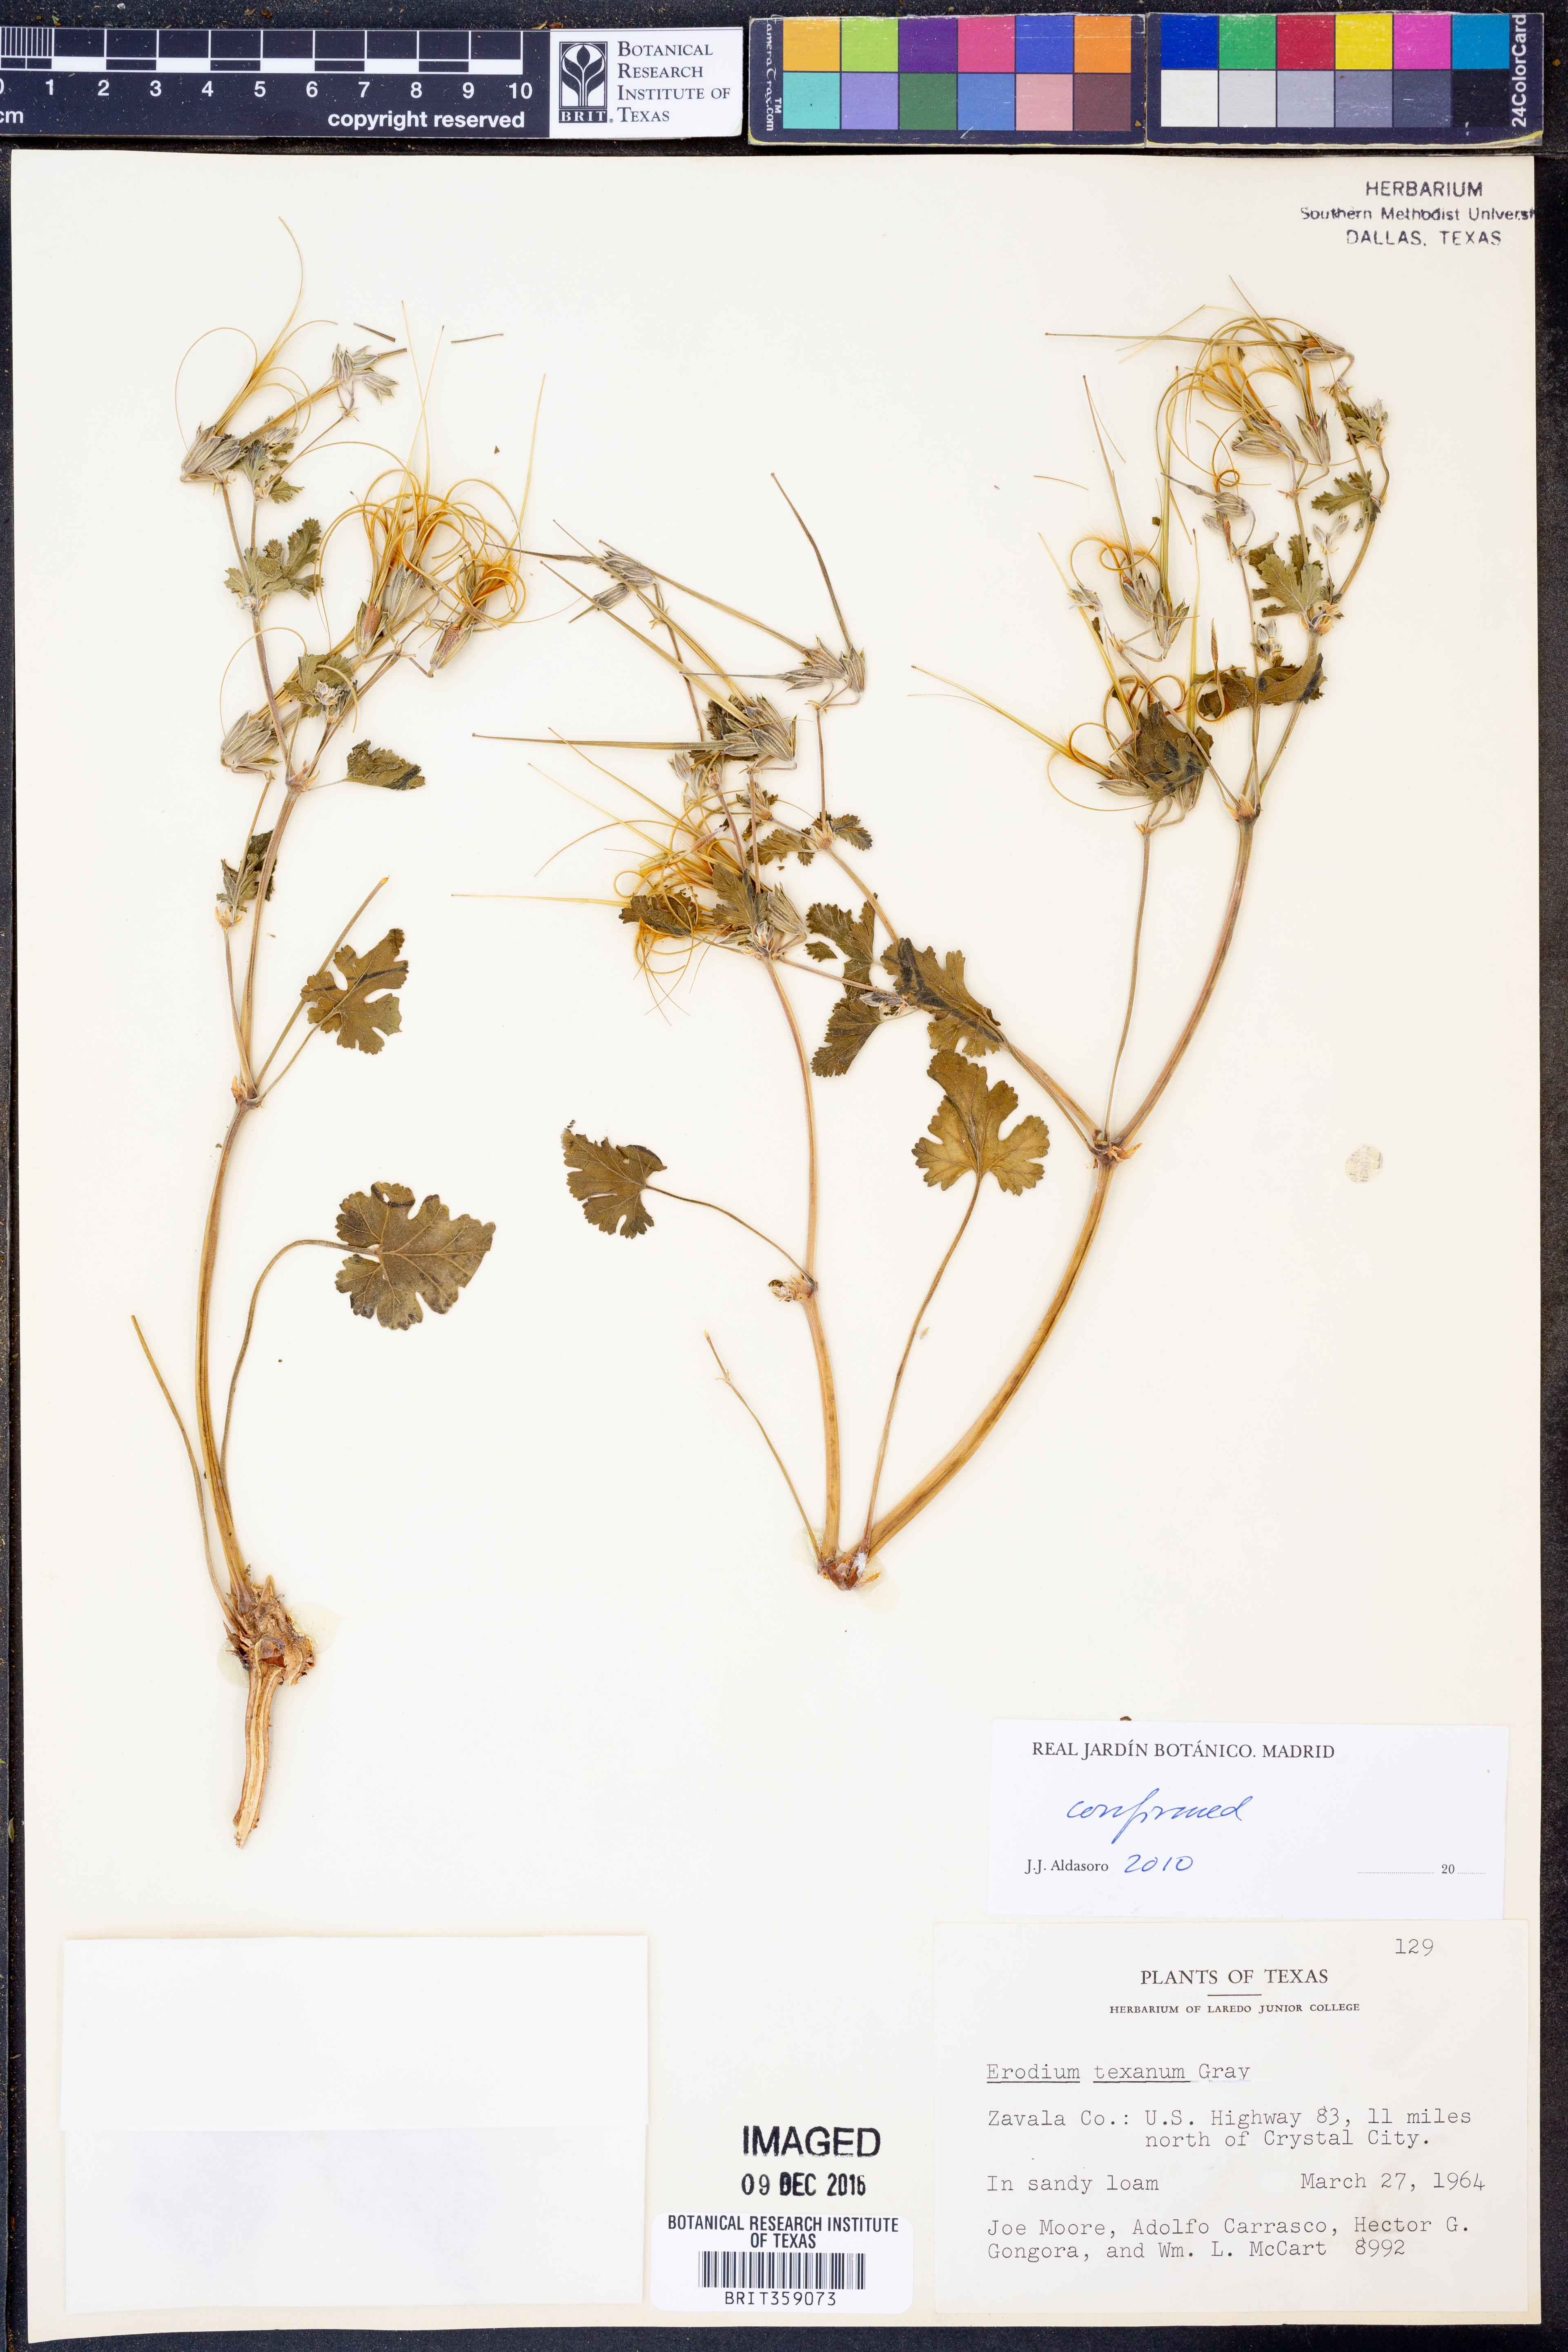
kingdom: Plantae
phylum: Tracheophyta
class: Magnoliopsida
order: Geraniales
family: Geraniaceae
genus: Erodium
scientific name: Erodium texanum
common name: Texas stork's-bill
